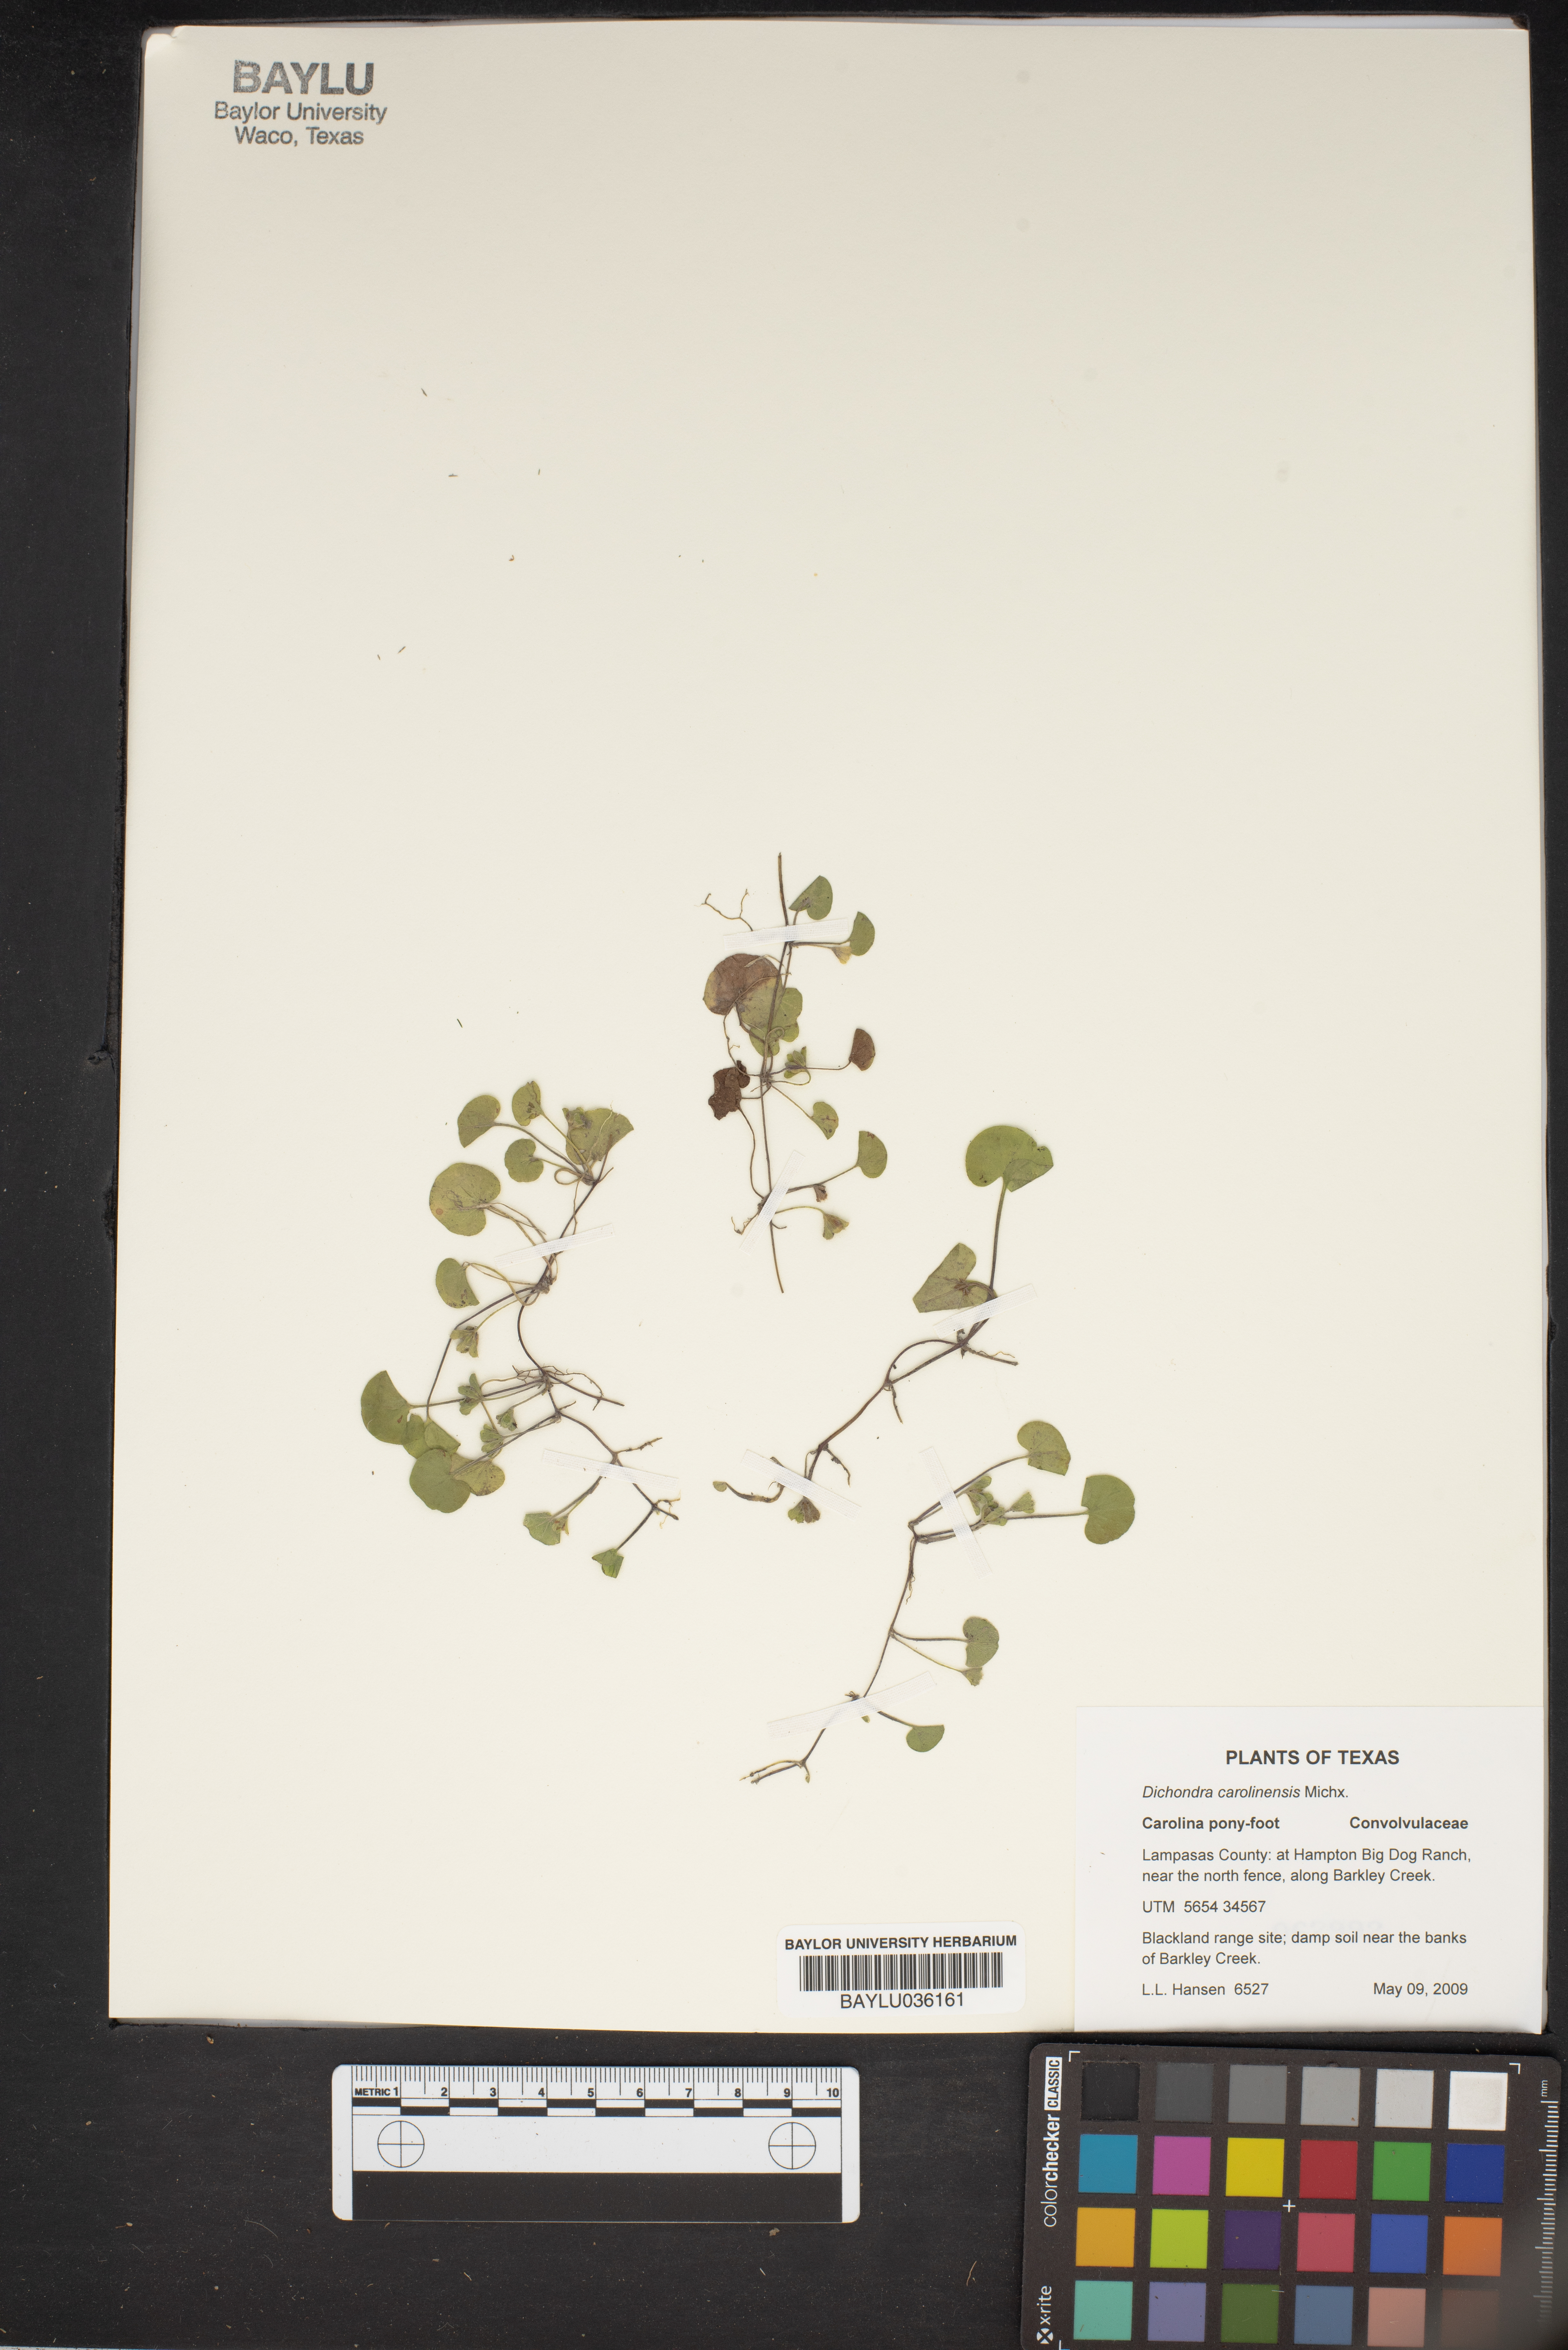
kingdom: Plantae
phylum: Tracheophyta
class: Magnoliopsida
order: Solanales
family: Convolvulaceae
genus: Dichondra
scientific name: Dichondra carolinensis
